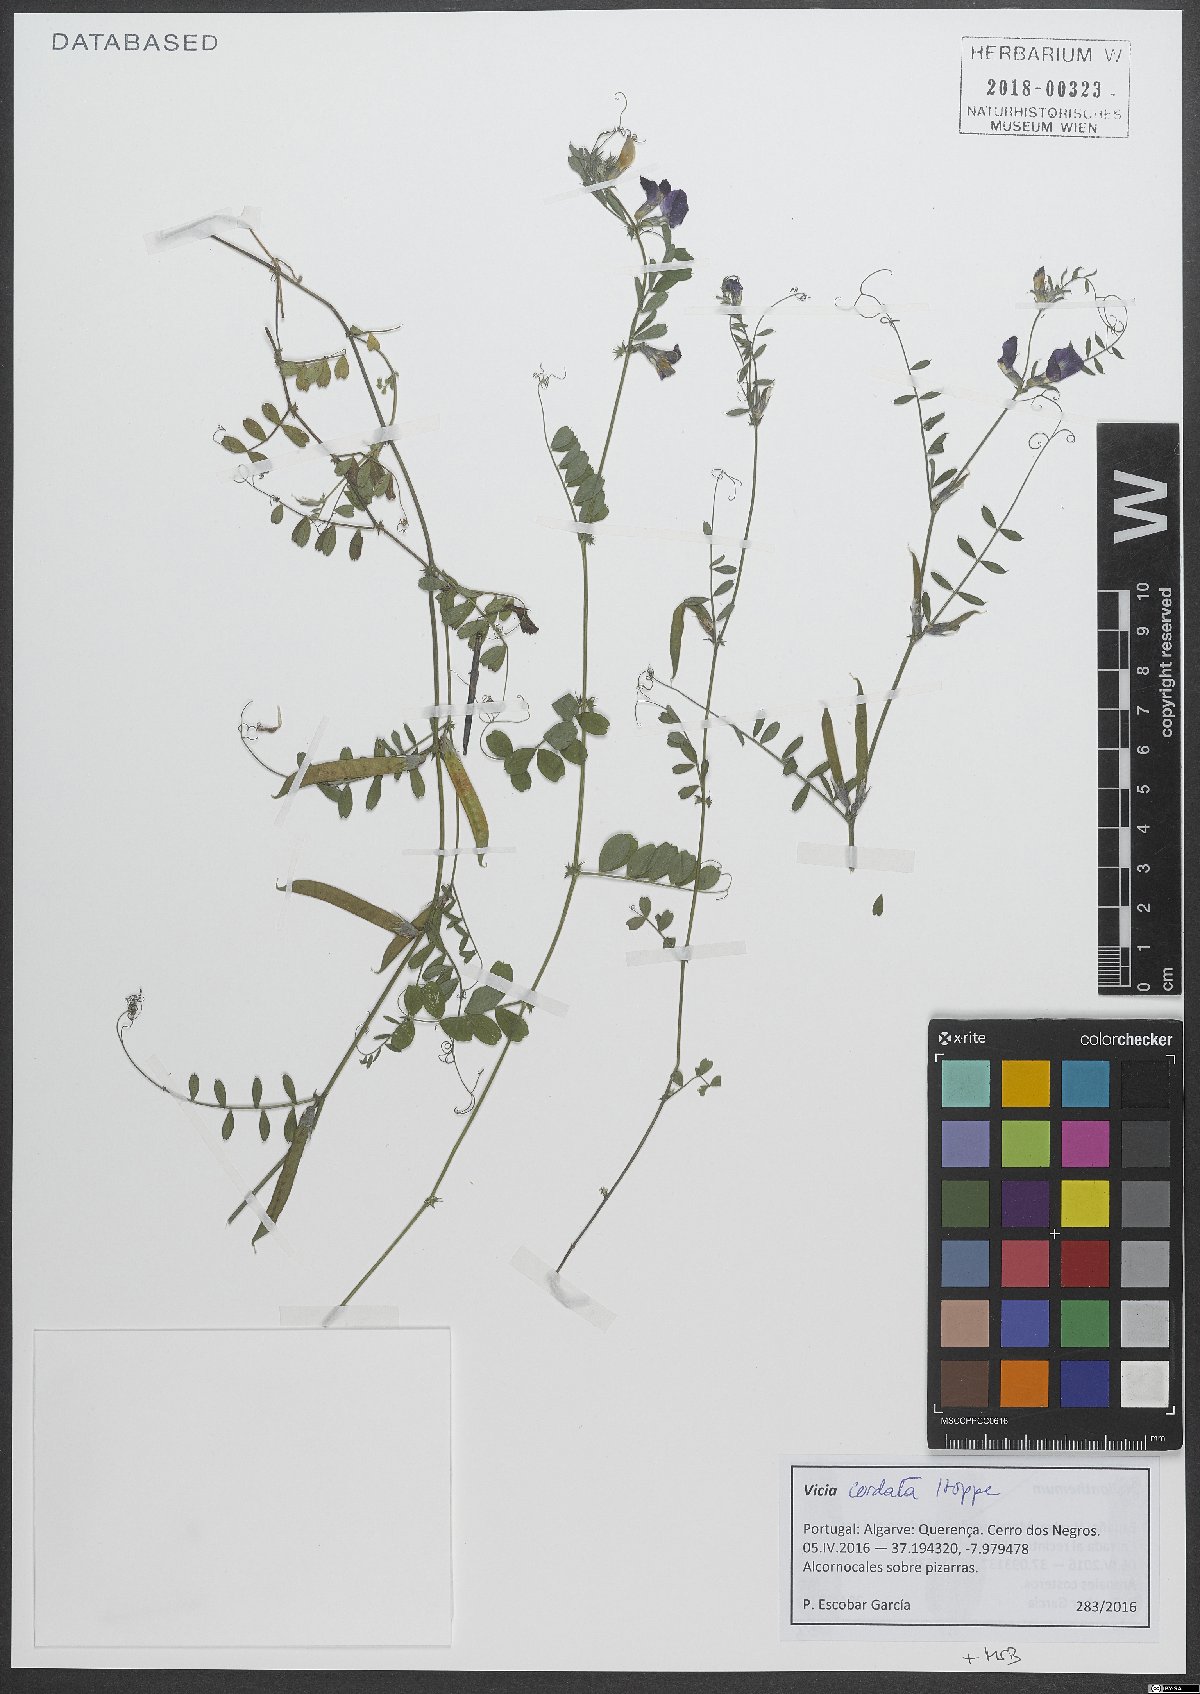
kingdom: Plantae
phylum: Tracheophyta
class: Magnoliopsida
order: Fabales
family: Fabaceae
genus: Vicia
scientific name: Vicia sativa
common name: Garden vetch
